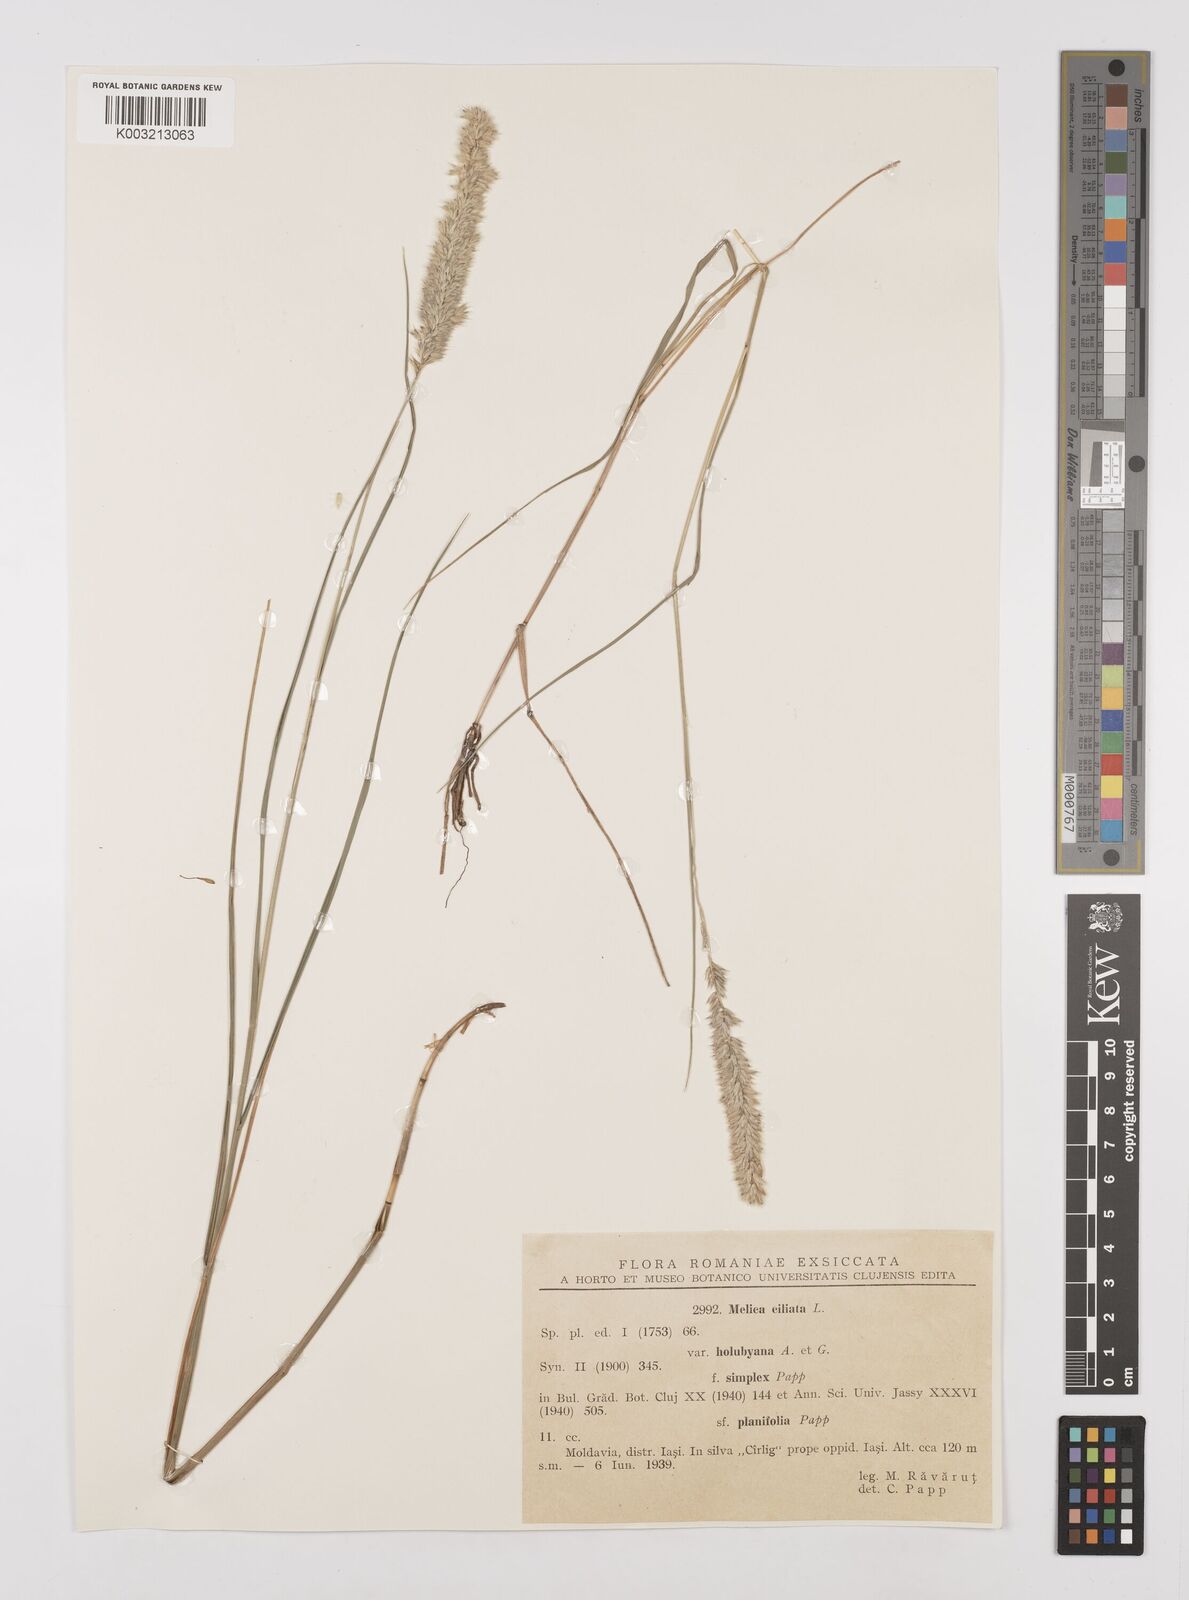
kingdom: Plantae
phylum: Tracheophyta
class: Liliopsida
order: Poales
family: Poaceae
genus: Melica
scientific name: Melica ciliata
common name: Hairy melicgrass
